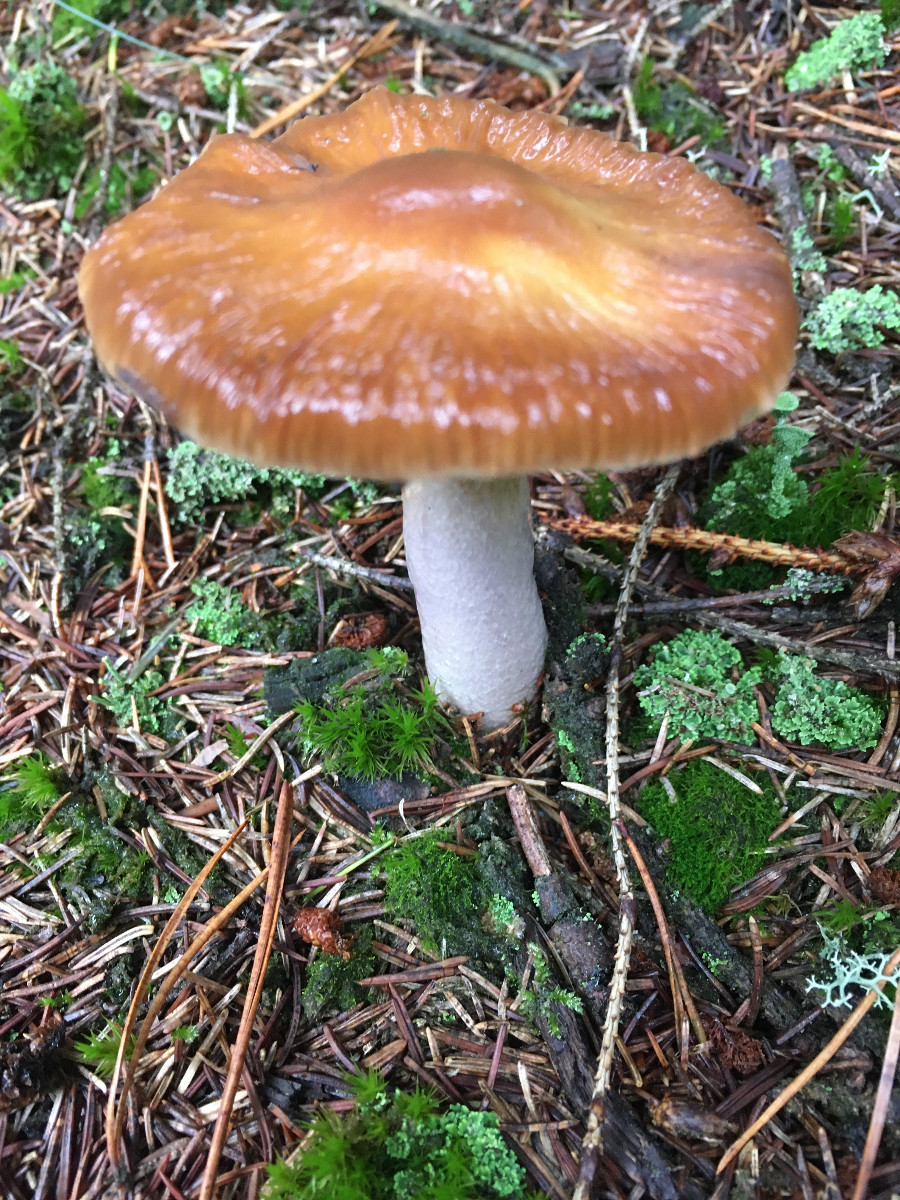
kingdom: Fungi
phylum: Basidiomycota
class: Agaricomycetes
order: Agaricales
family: Cortinariaceae
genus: Cortinarius
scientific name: Cortinarius stillatitius
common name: honningduftende slørhat
